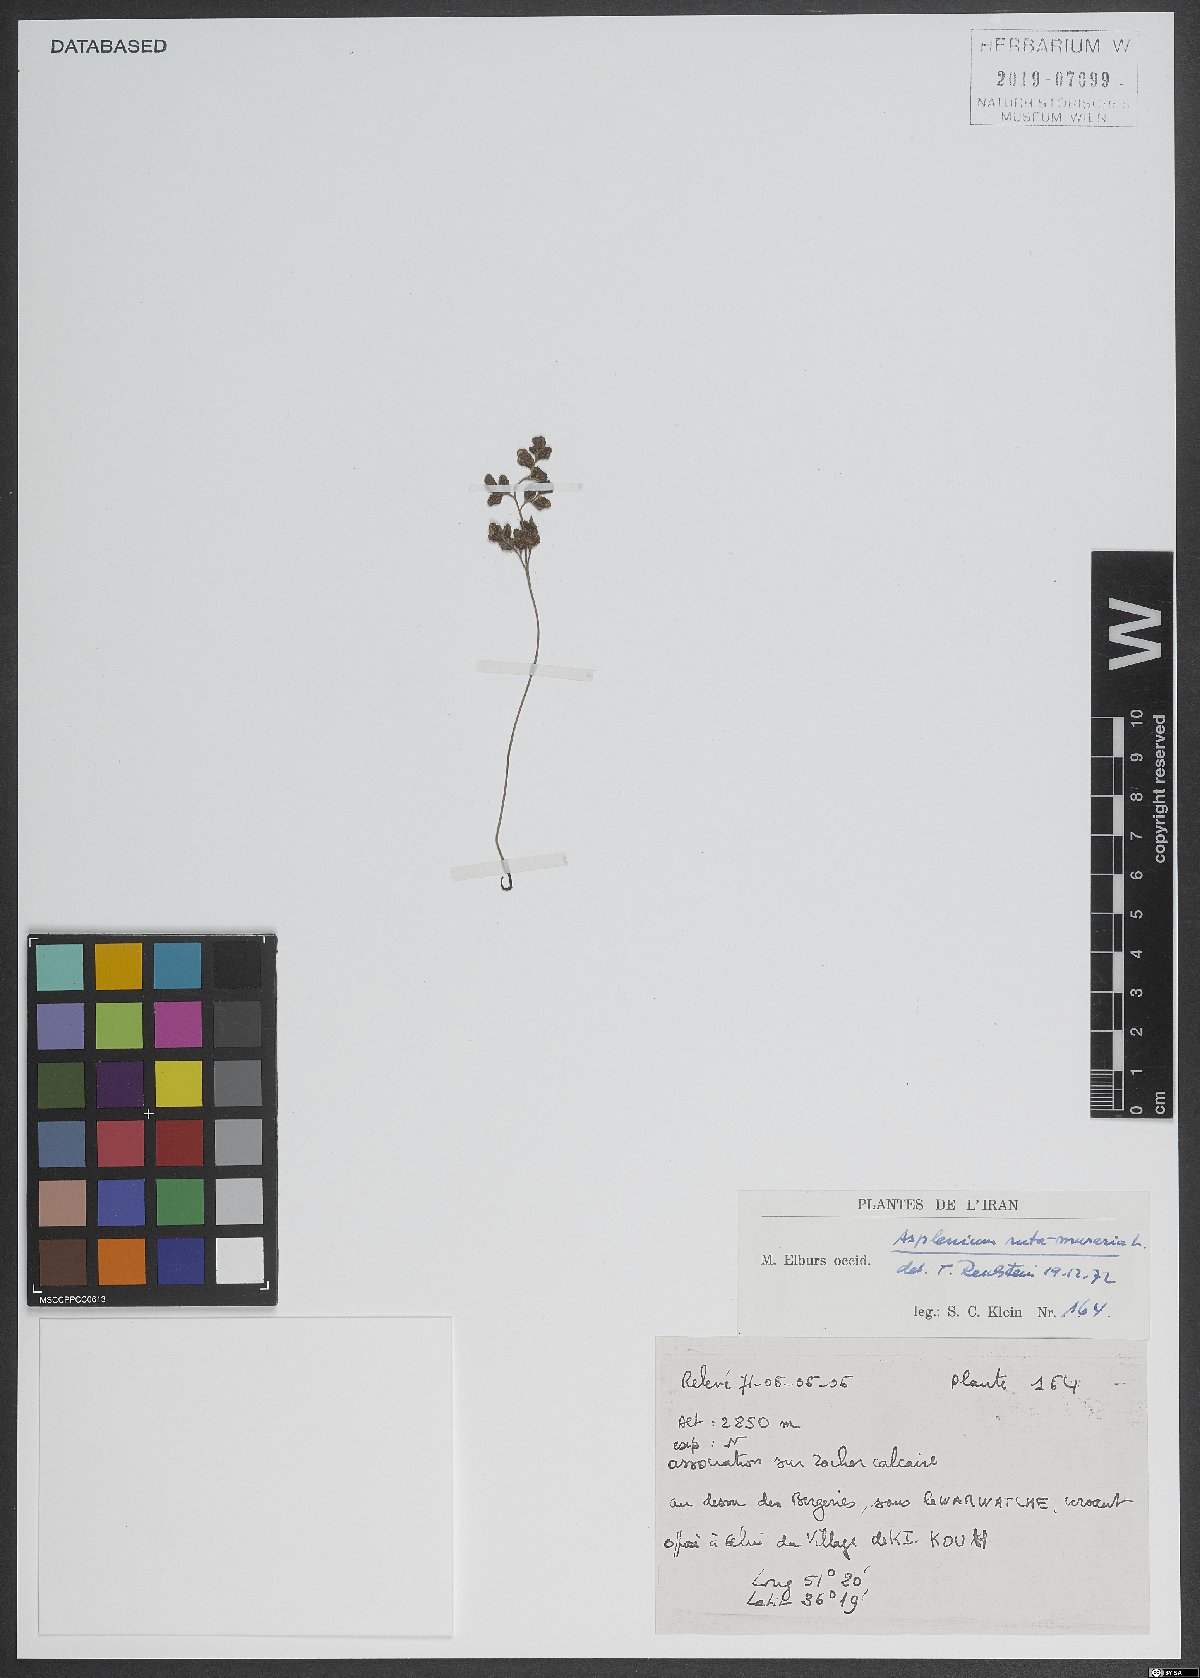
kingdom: Plantae
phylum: Tracheophyta
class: Polypodiopsida
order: Polypodiales
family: Aspleniaceae
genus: Asplenium
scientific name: Asplenium ruta-muraria
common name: Wall-rue
